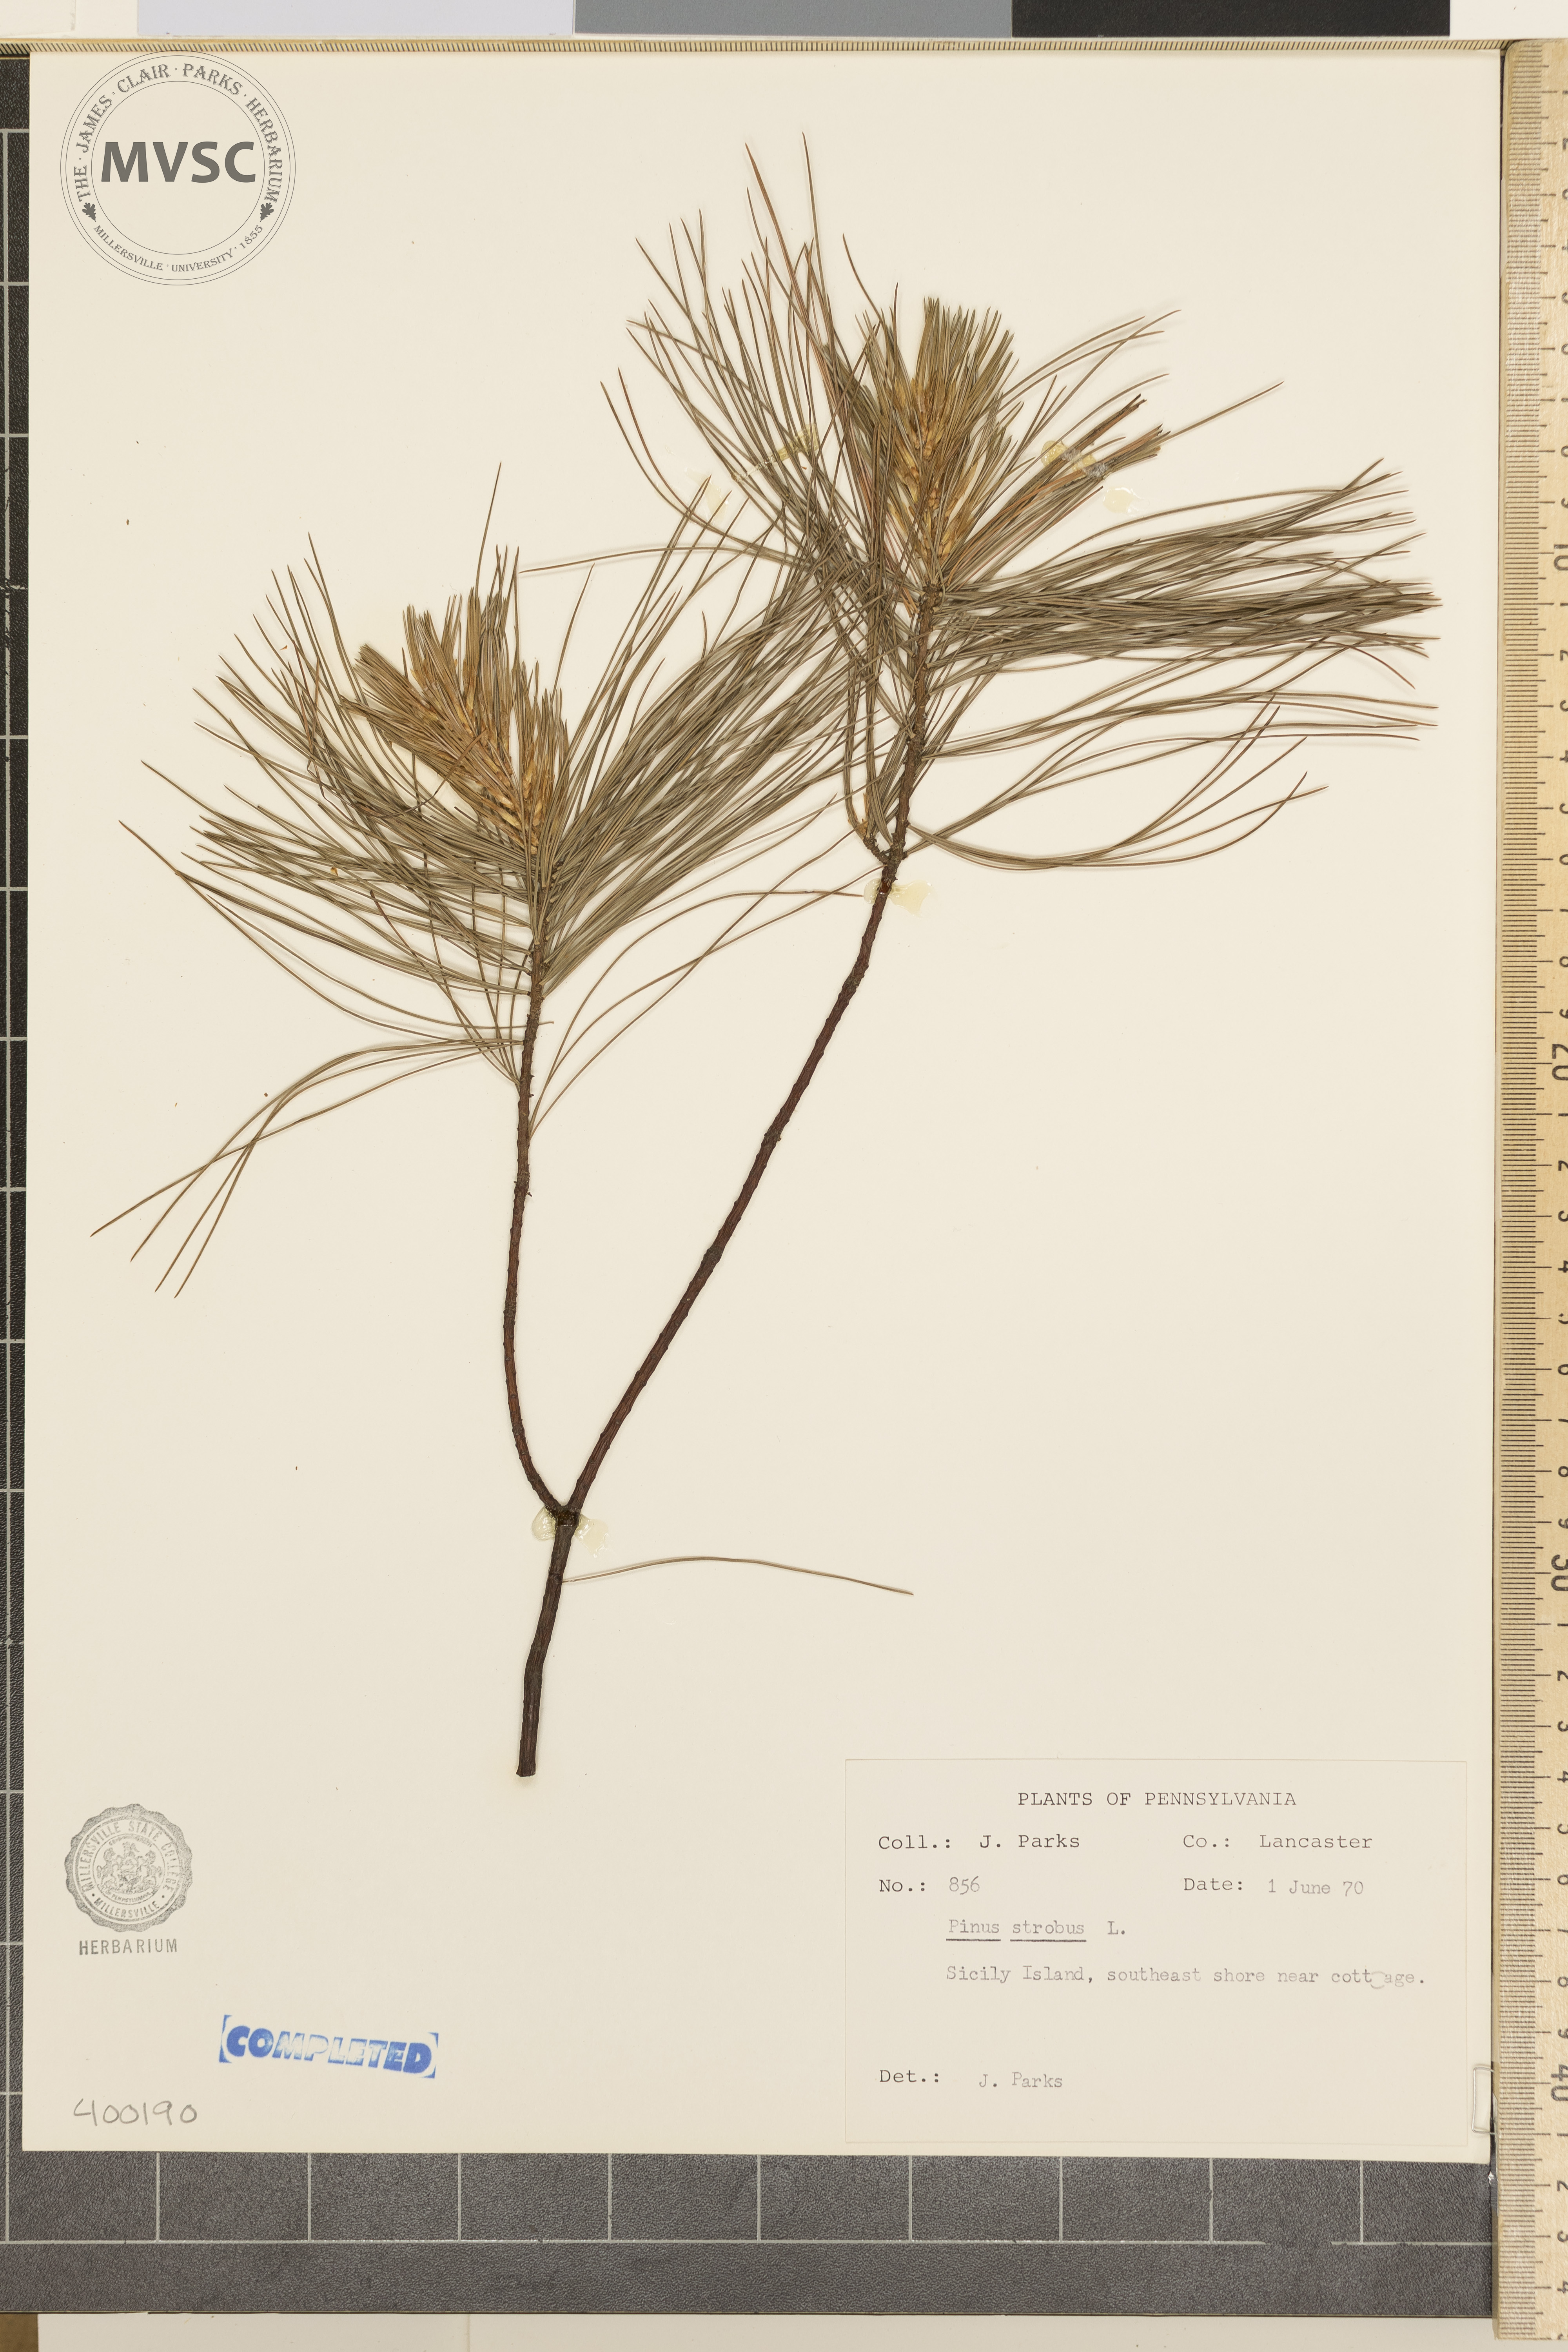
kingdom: Plantae
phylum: Tracheophyta
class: Pinopsida
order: Pinales
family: Pinaceae
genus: Pinus
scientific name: Pinus strobus
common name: Eastern white pine
